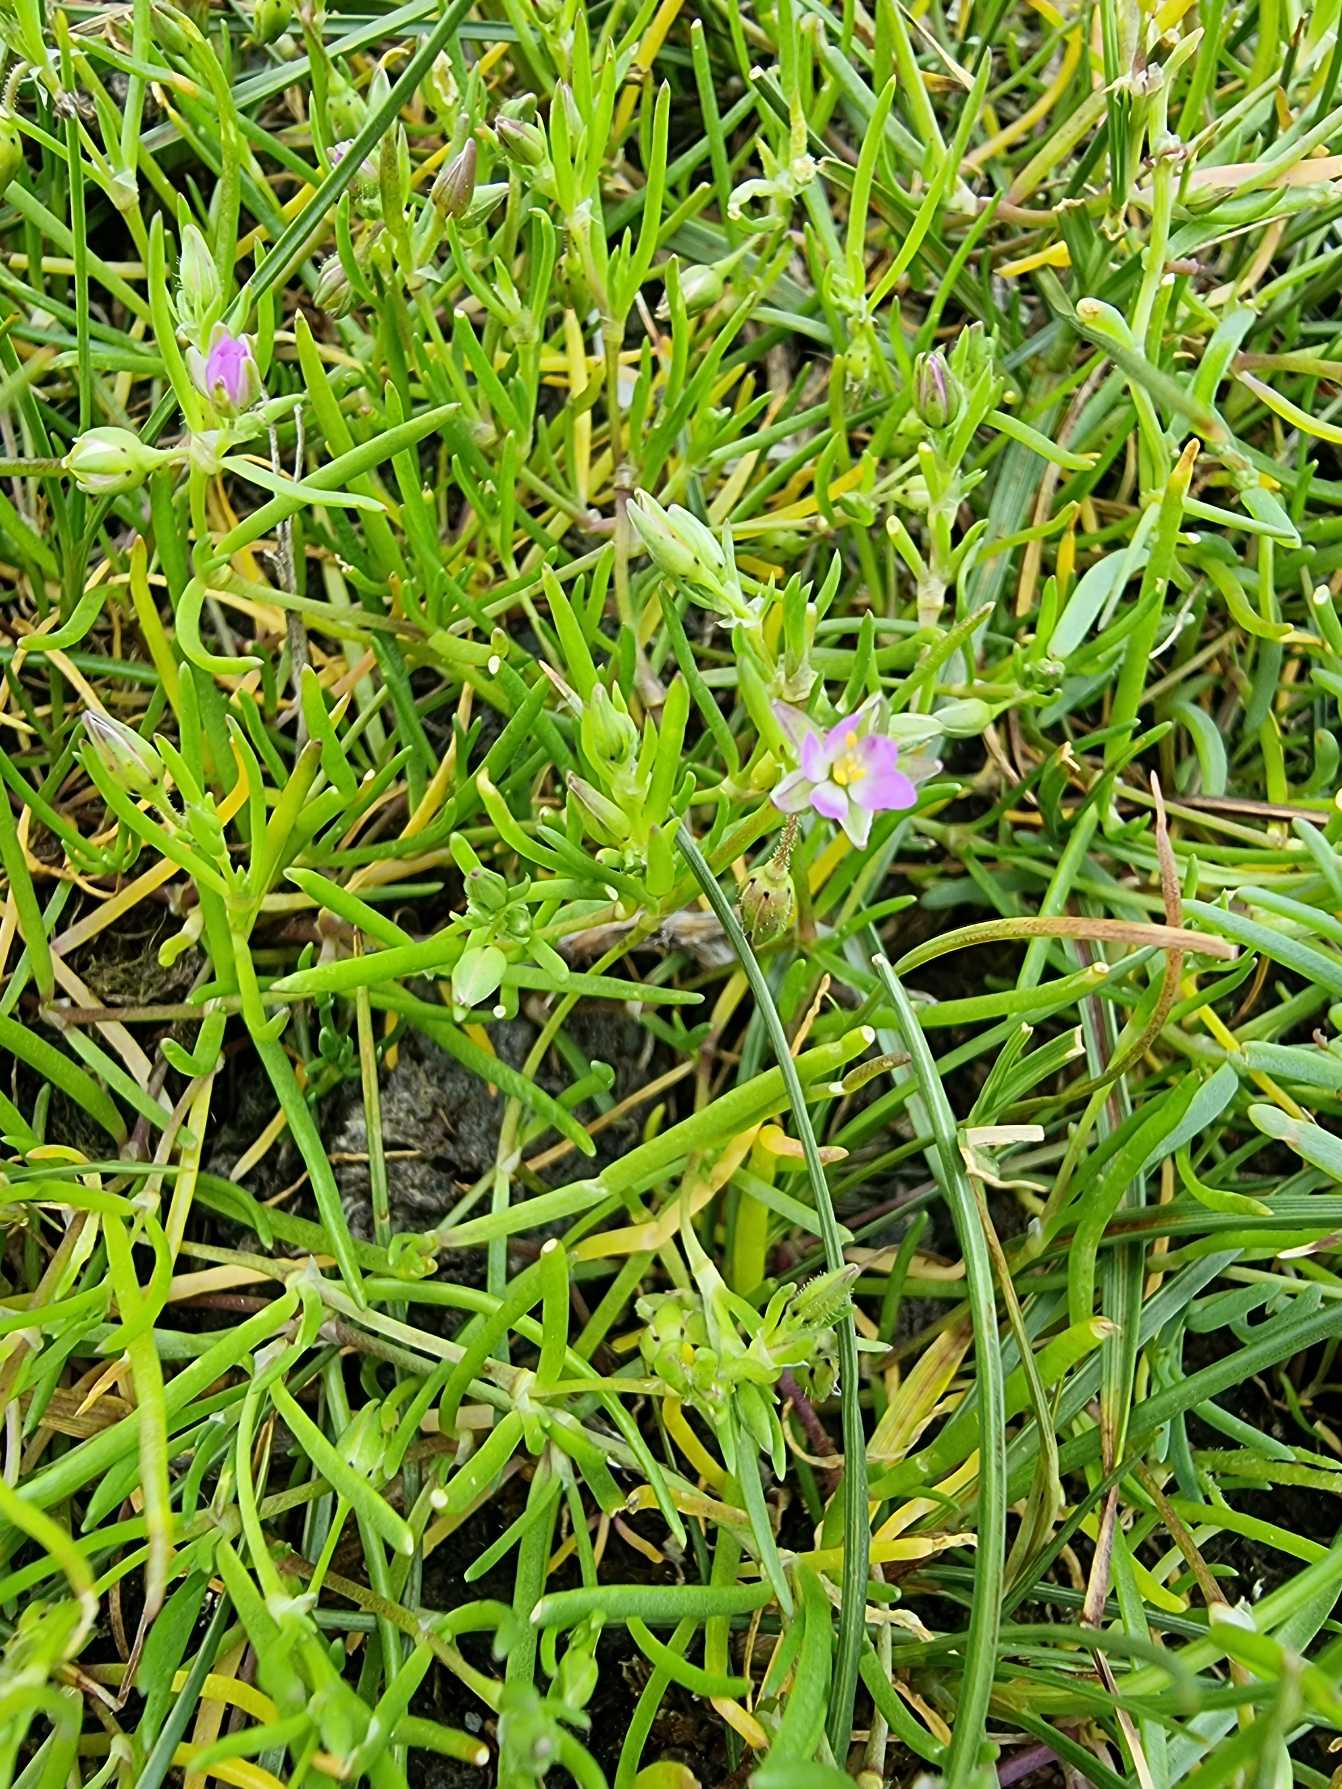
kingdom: Plantae
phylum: Tracheophyta
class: Magnoliopsida
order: Caryophyllales
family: Caryophyllaceae
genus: Spergularia
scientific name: Spergularia marina
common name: Kødet hindeknæ
